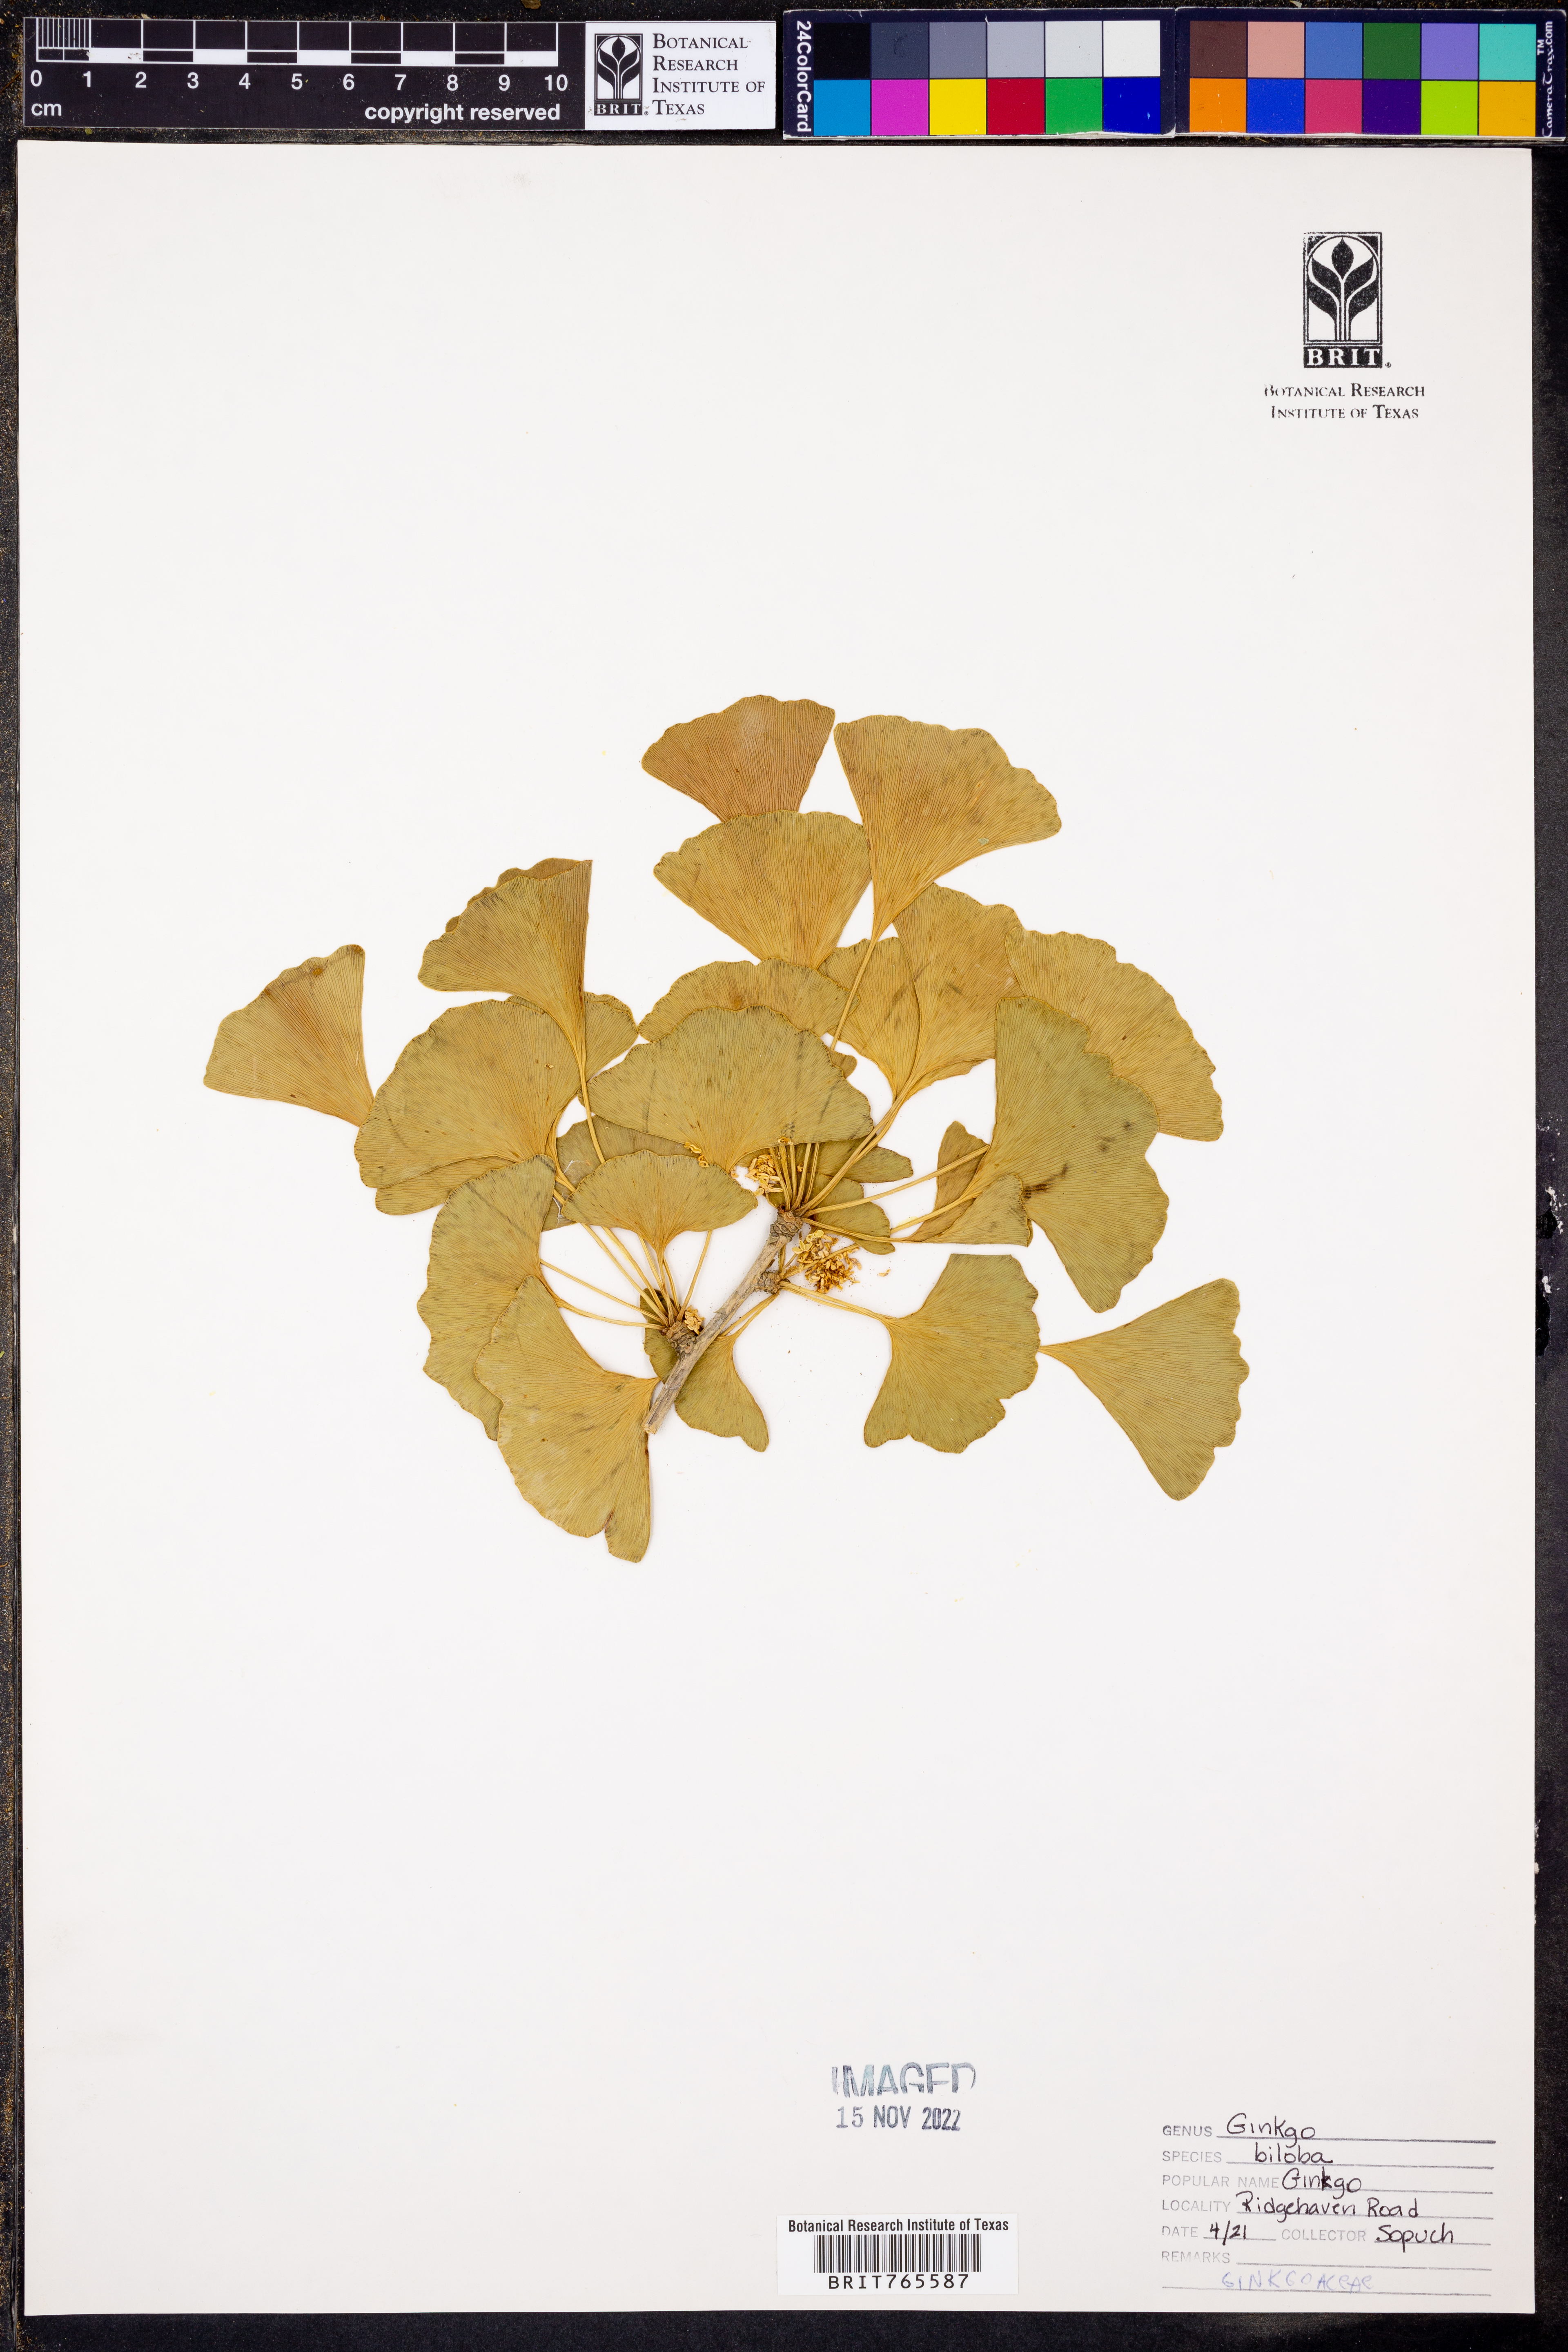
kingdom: Plantae
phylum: Tracheophyta
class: Ginkgoopsida
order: Ginkgoales
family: Ginkgoaceae
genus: Ginkgo
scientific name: Ginkgo biloba
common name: Ginkgo
